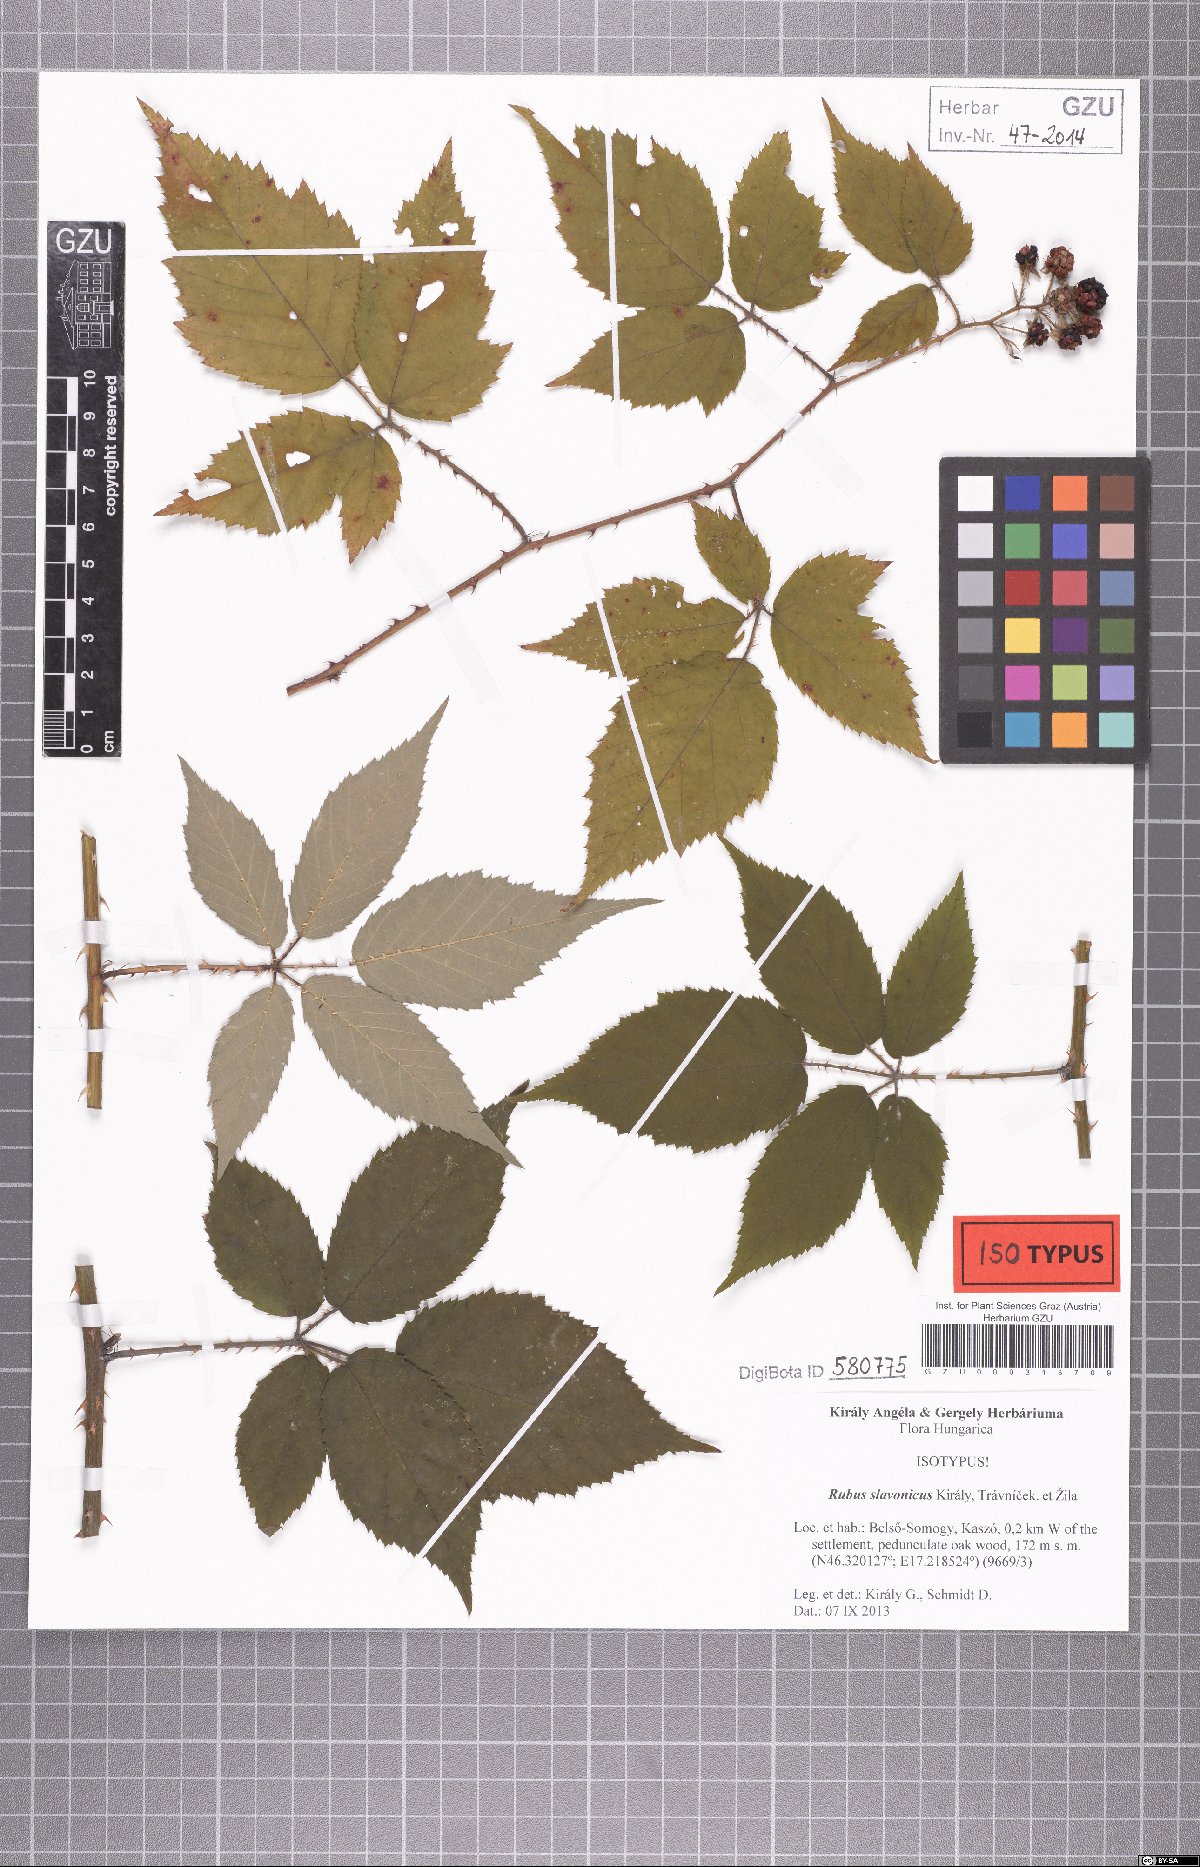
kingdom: Plantae
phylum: Tracheophyta
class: Magnoliopsida
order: Rosales
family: Rosaceae
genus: Rubus
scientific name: Rubus slavonicus
